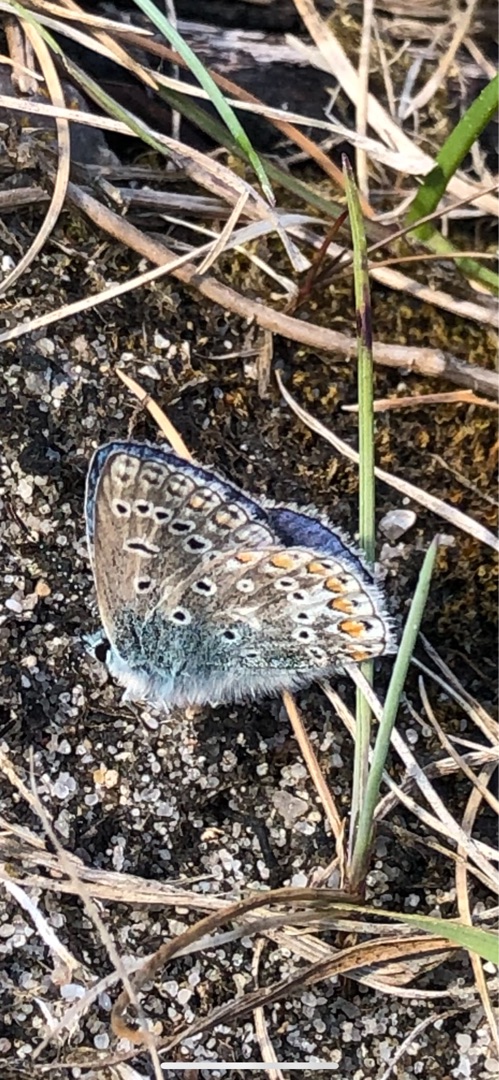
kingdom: Animalia
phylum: Arthropoda
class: Insecta
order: Lepidoptera
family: Lycaenidae
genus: Polyommatus
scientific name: Polyommatus icarus
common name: Almindelig blåfugl
